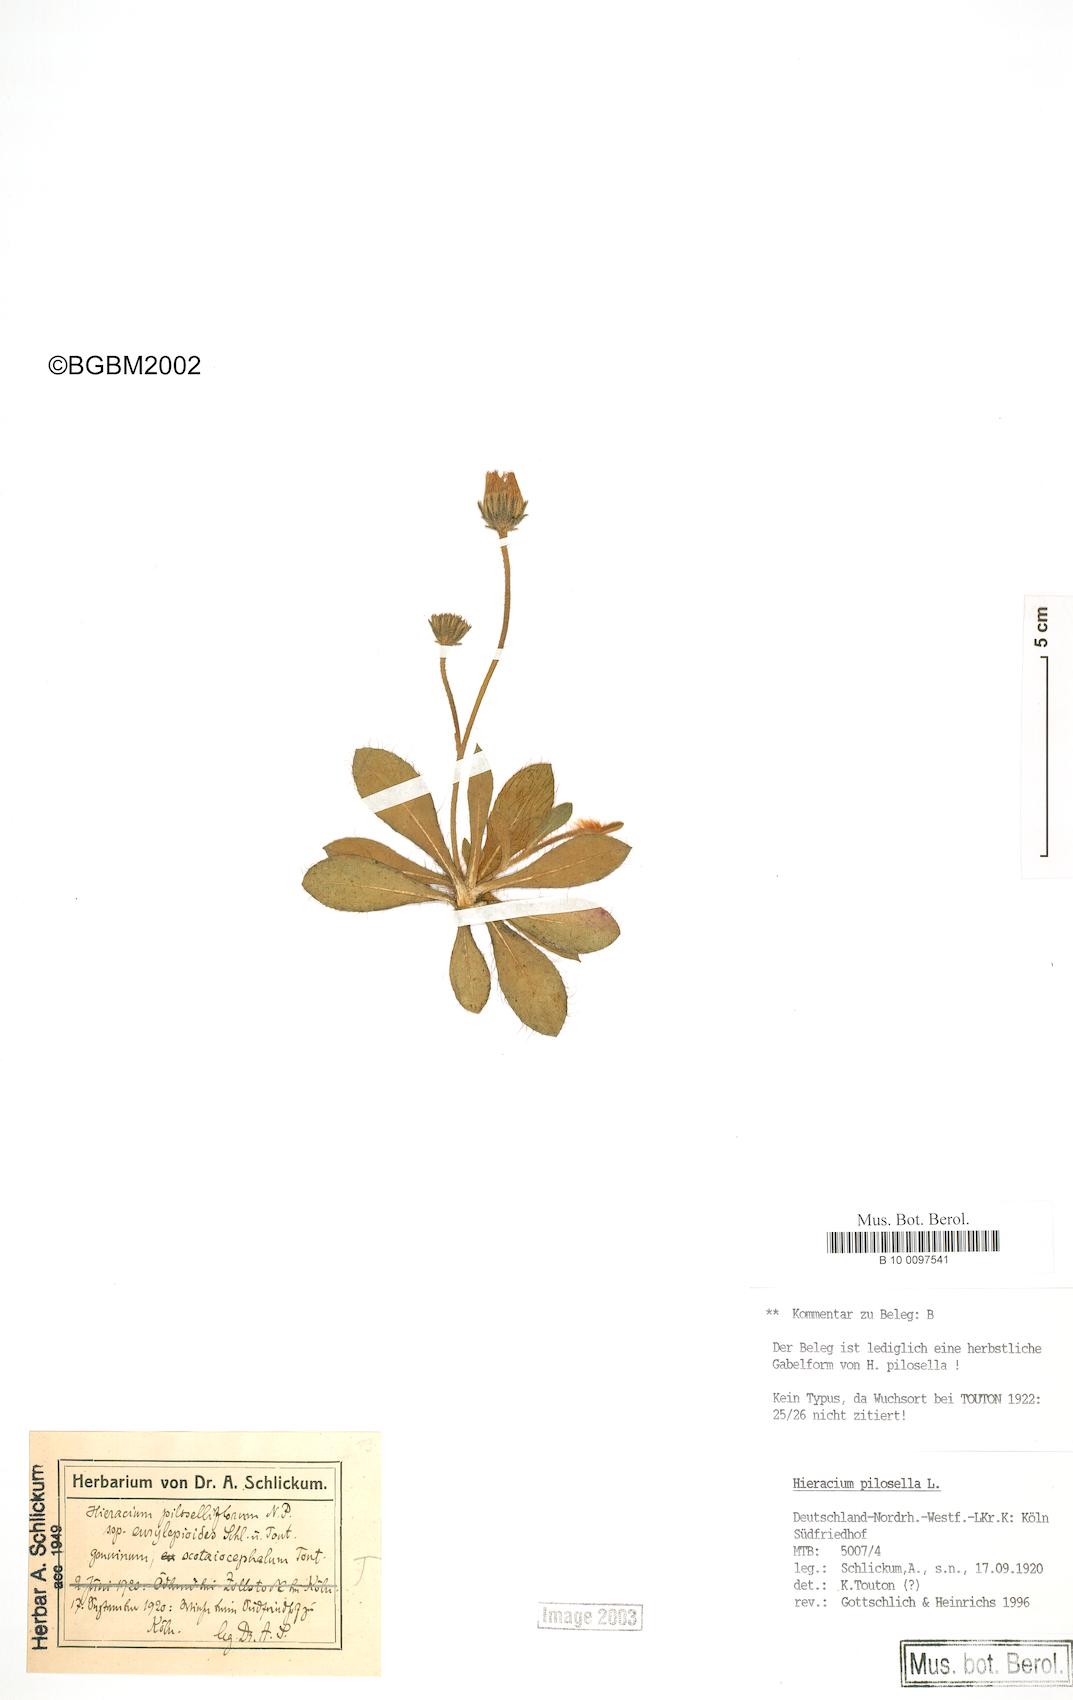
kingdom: Plantae
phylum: Tracheophyta
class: Magnoliopsida
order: Asterales
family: Asteraceae
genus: Pilosella
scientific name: Pilosella piloselliflora
